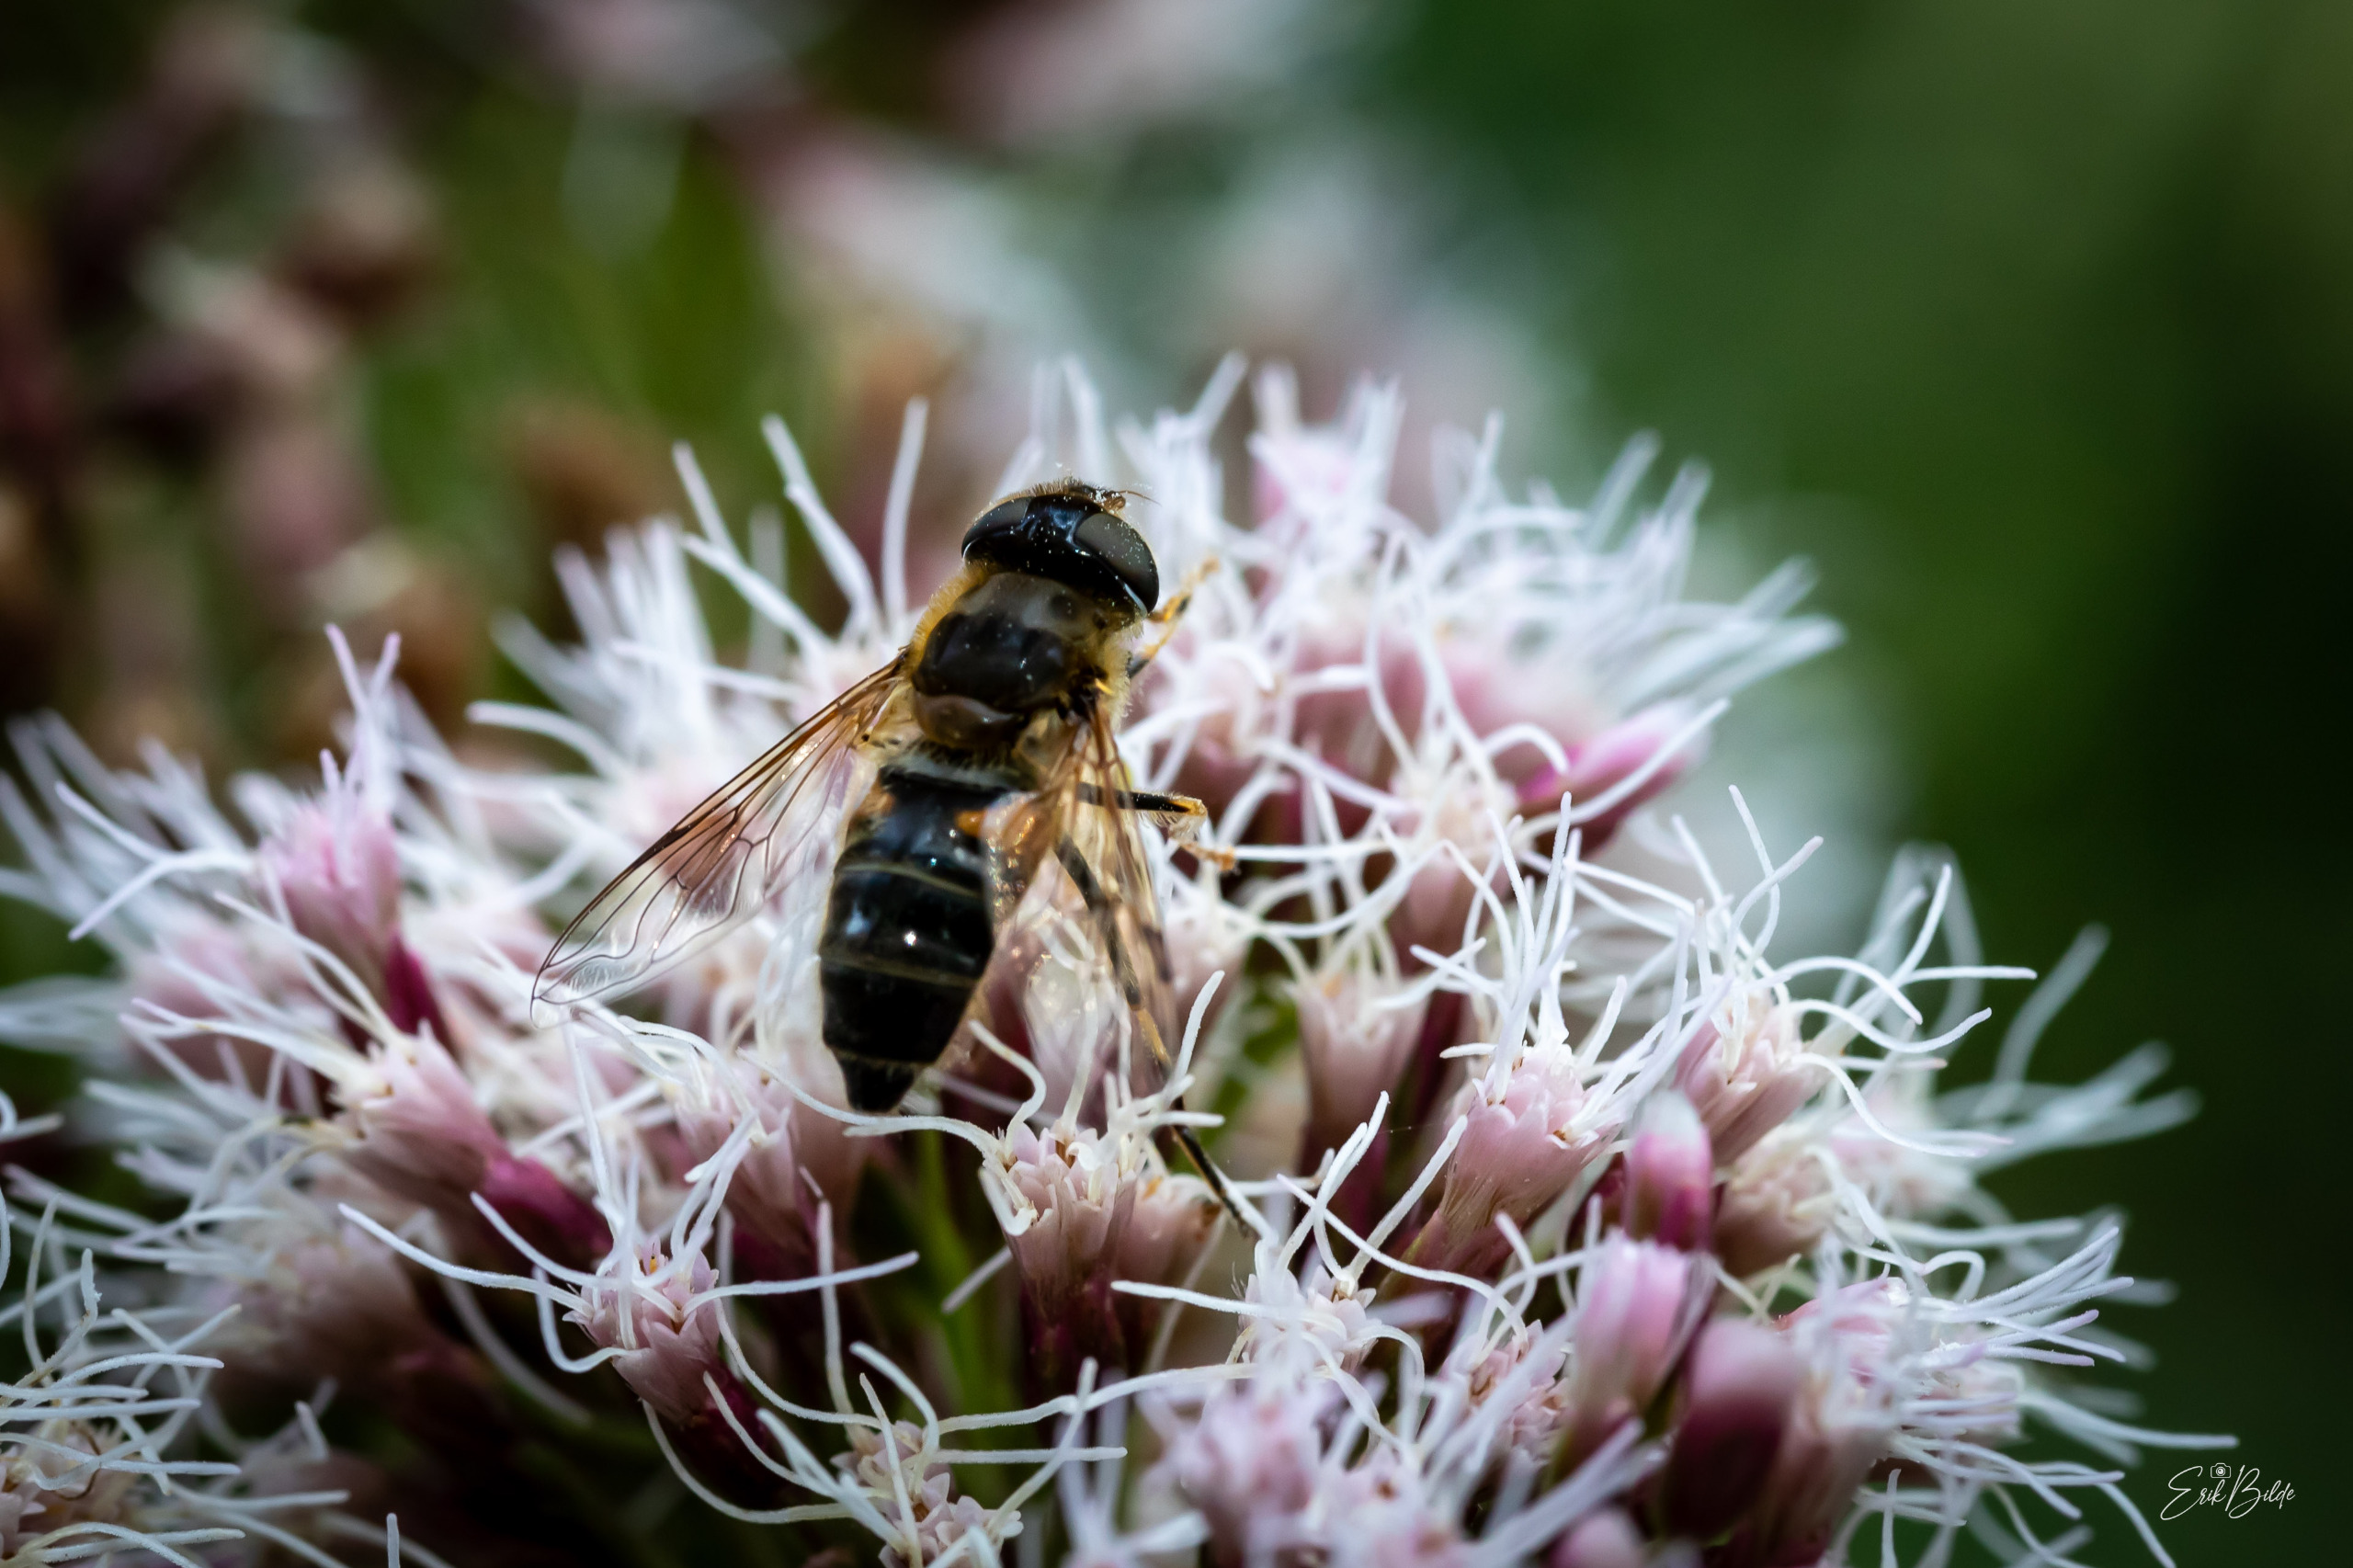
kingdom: Animalia
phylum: Arthropoda
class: Insecta
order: Diptera
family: Syrphidae
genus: Eristalis
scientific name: Eristalis pertinax
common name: Gulfodet dyndflue
